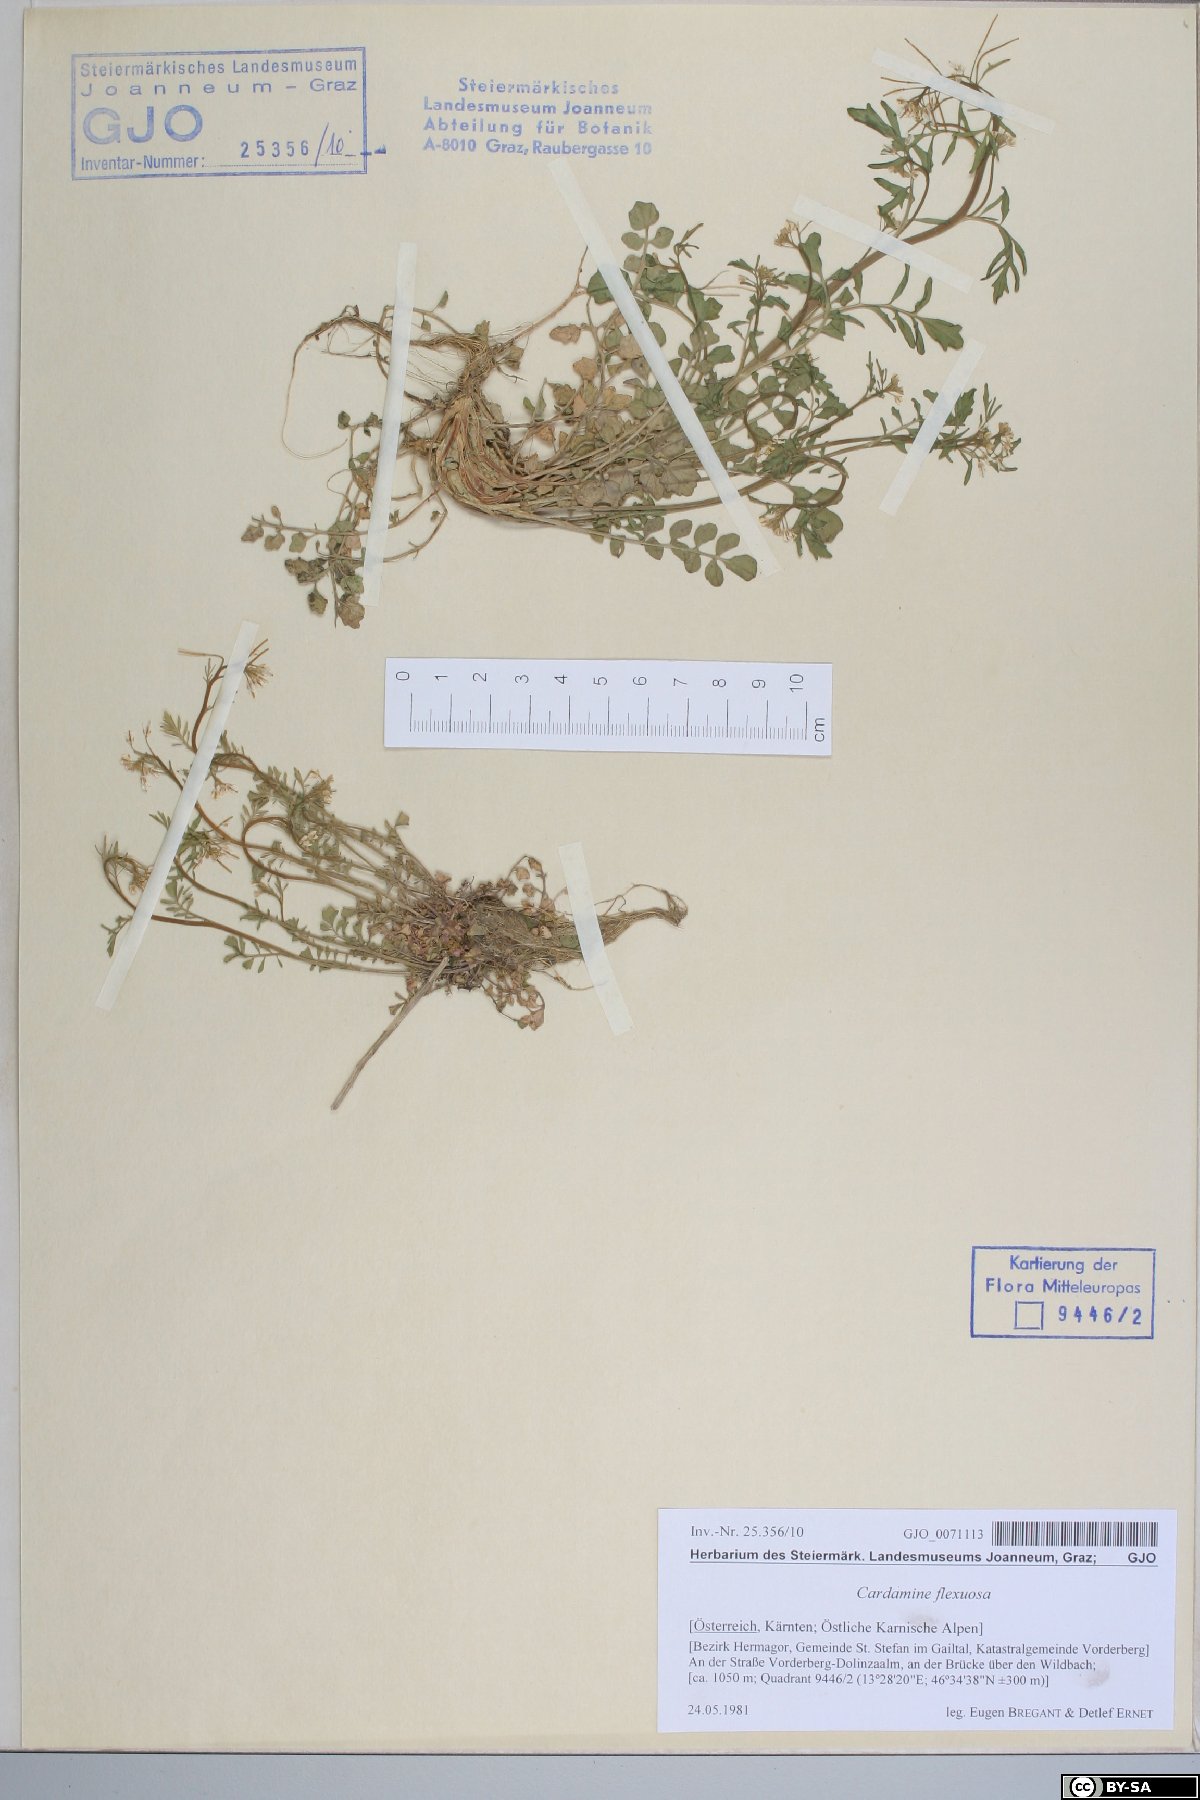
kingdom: Plantae
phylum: Tracheophyta
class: Magnoliopsida
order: Brassicales
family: Brassicaceae
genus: Cardamine
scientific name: Cardamine flexuosa
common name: Woodland bittercress
